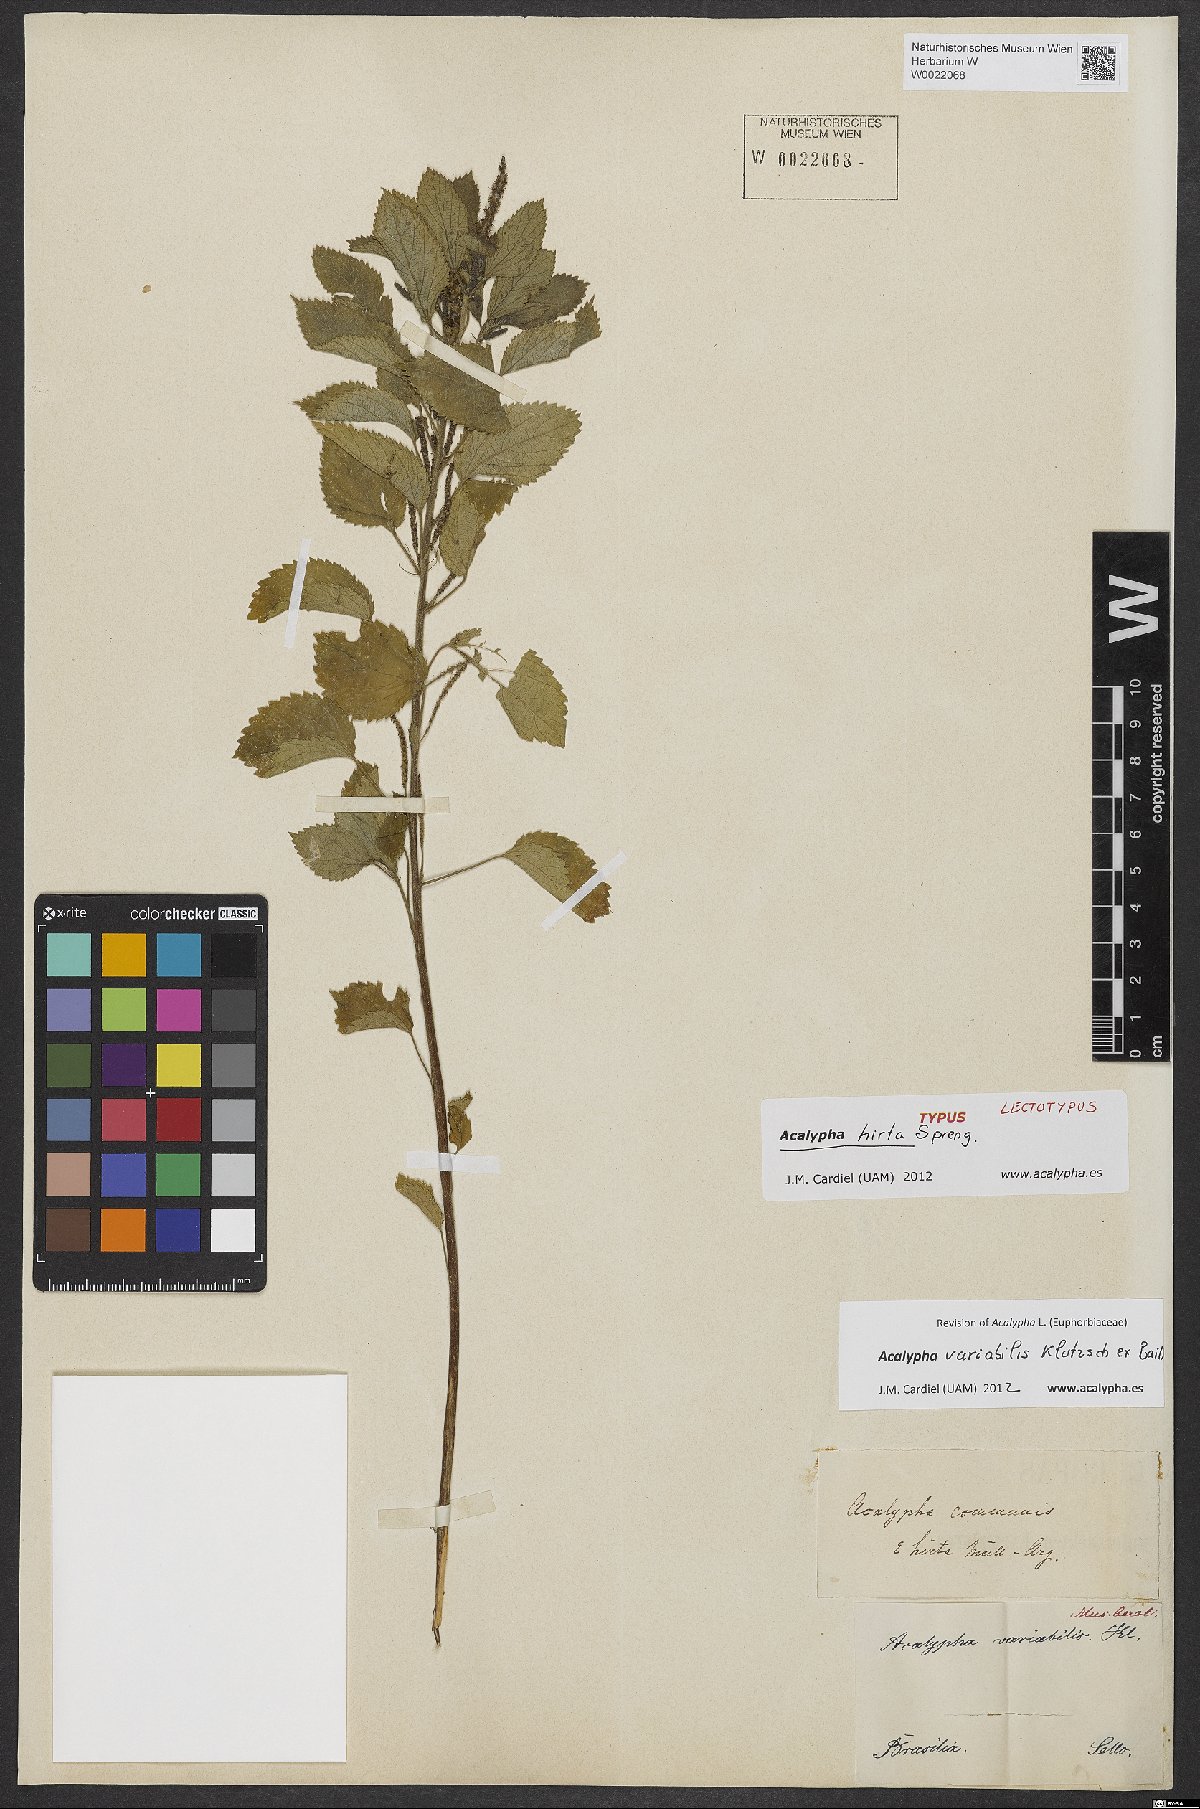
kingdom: Plantae
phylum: Tracheophyta
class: Magnoliopsida
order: Malpighiales
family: Euphorbiaceae
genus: Acalypha
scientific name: Acalypha variabilis
